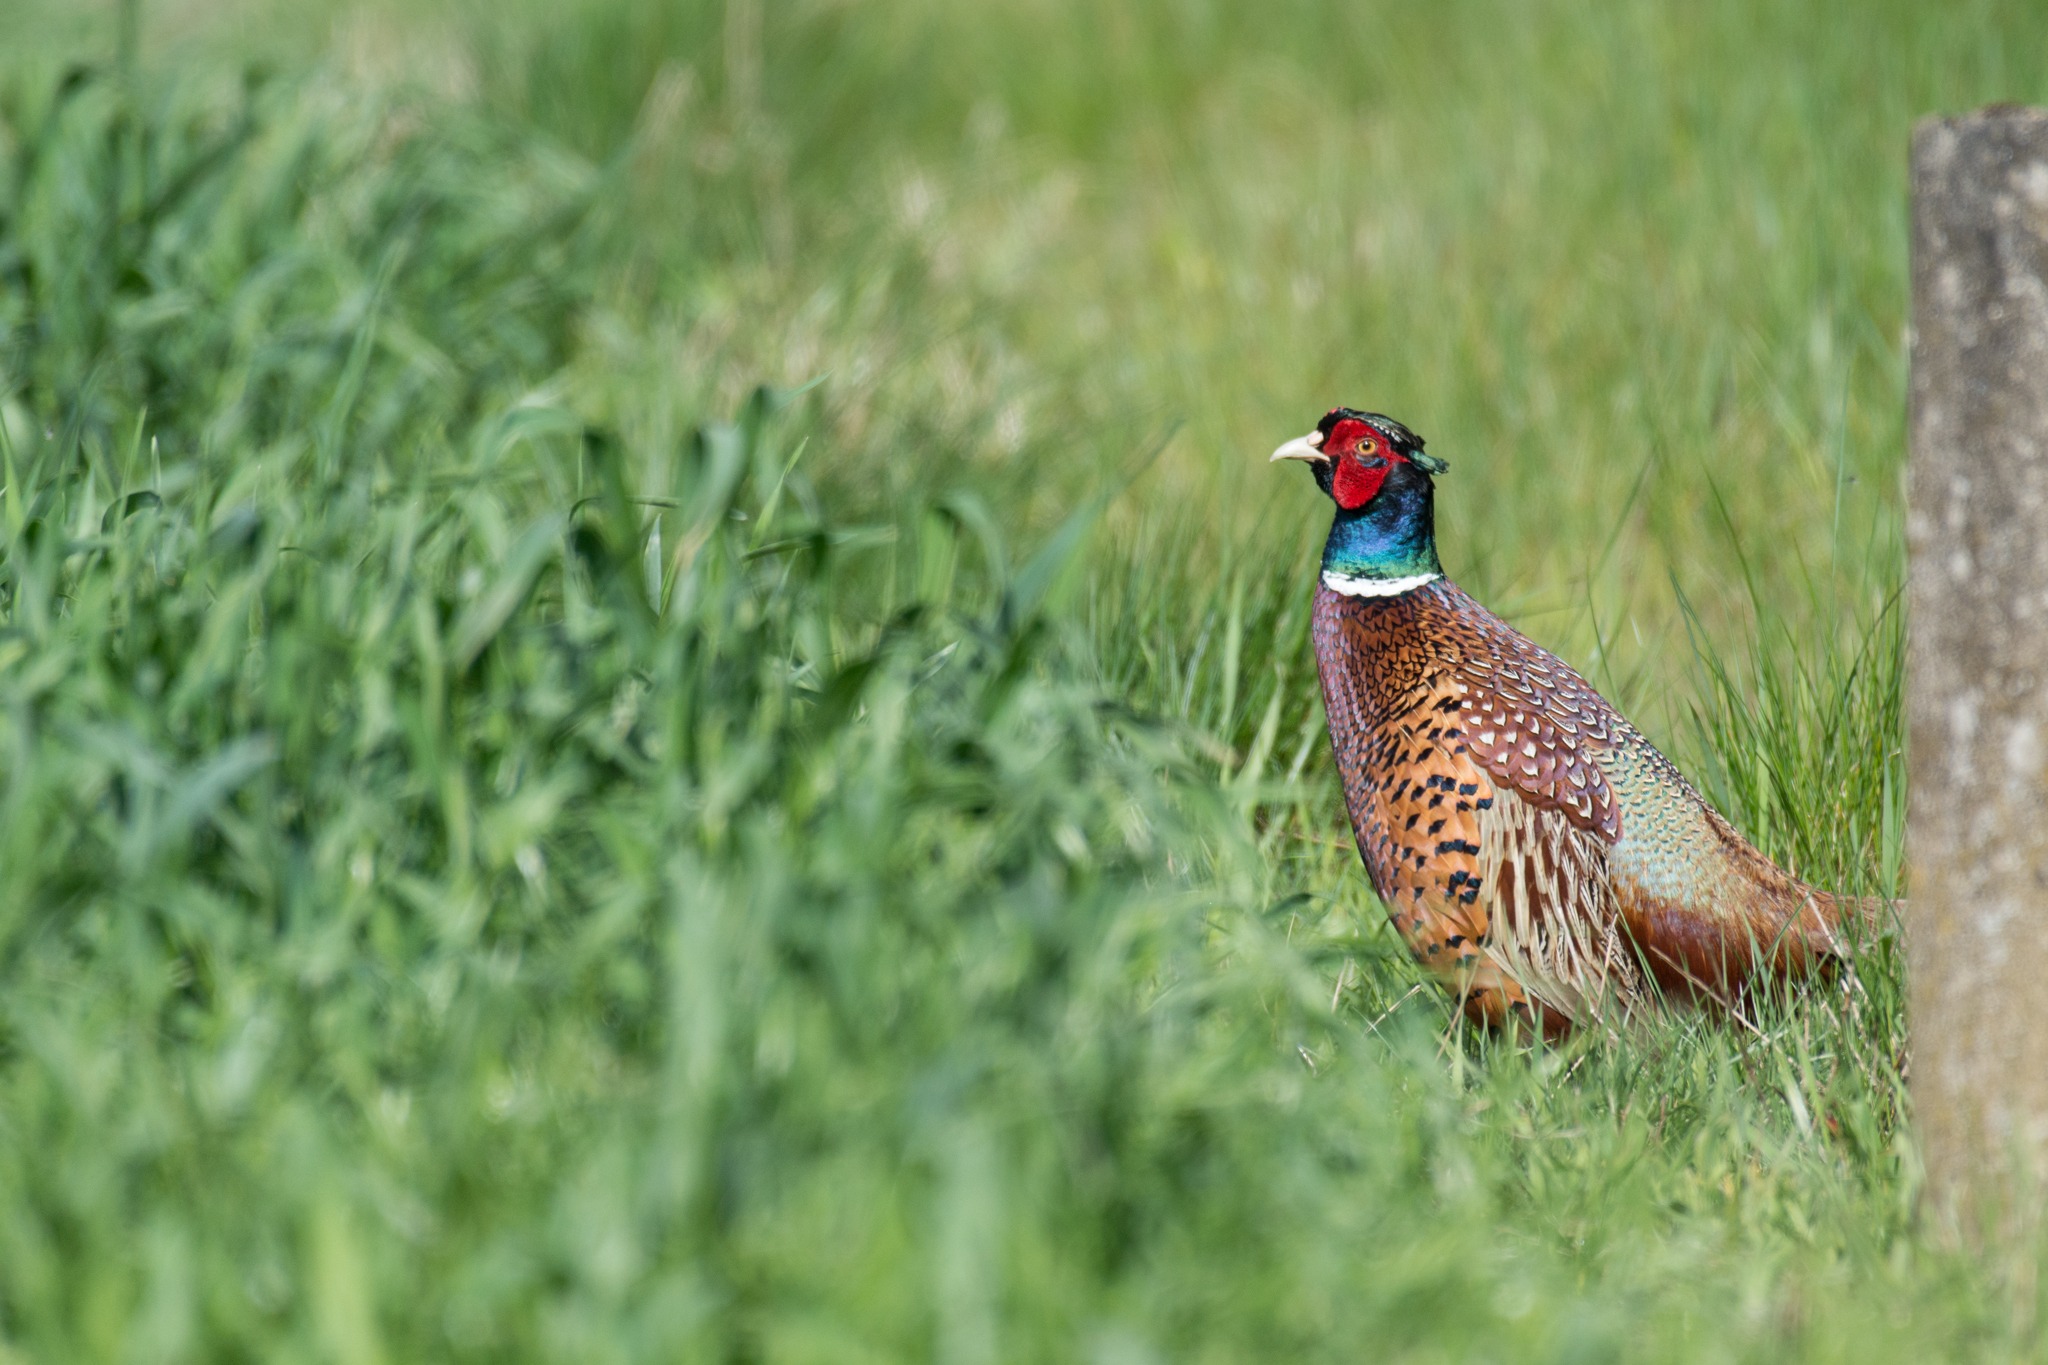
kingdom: Animalia
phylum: Chordata
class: Aves
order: Galliformes
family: Phasianidae
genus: Phasianus
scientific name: Phasianus colchicus
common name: Fasan
